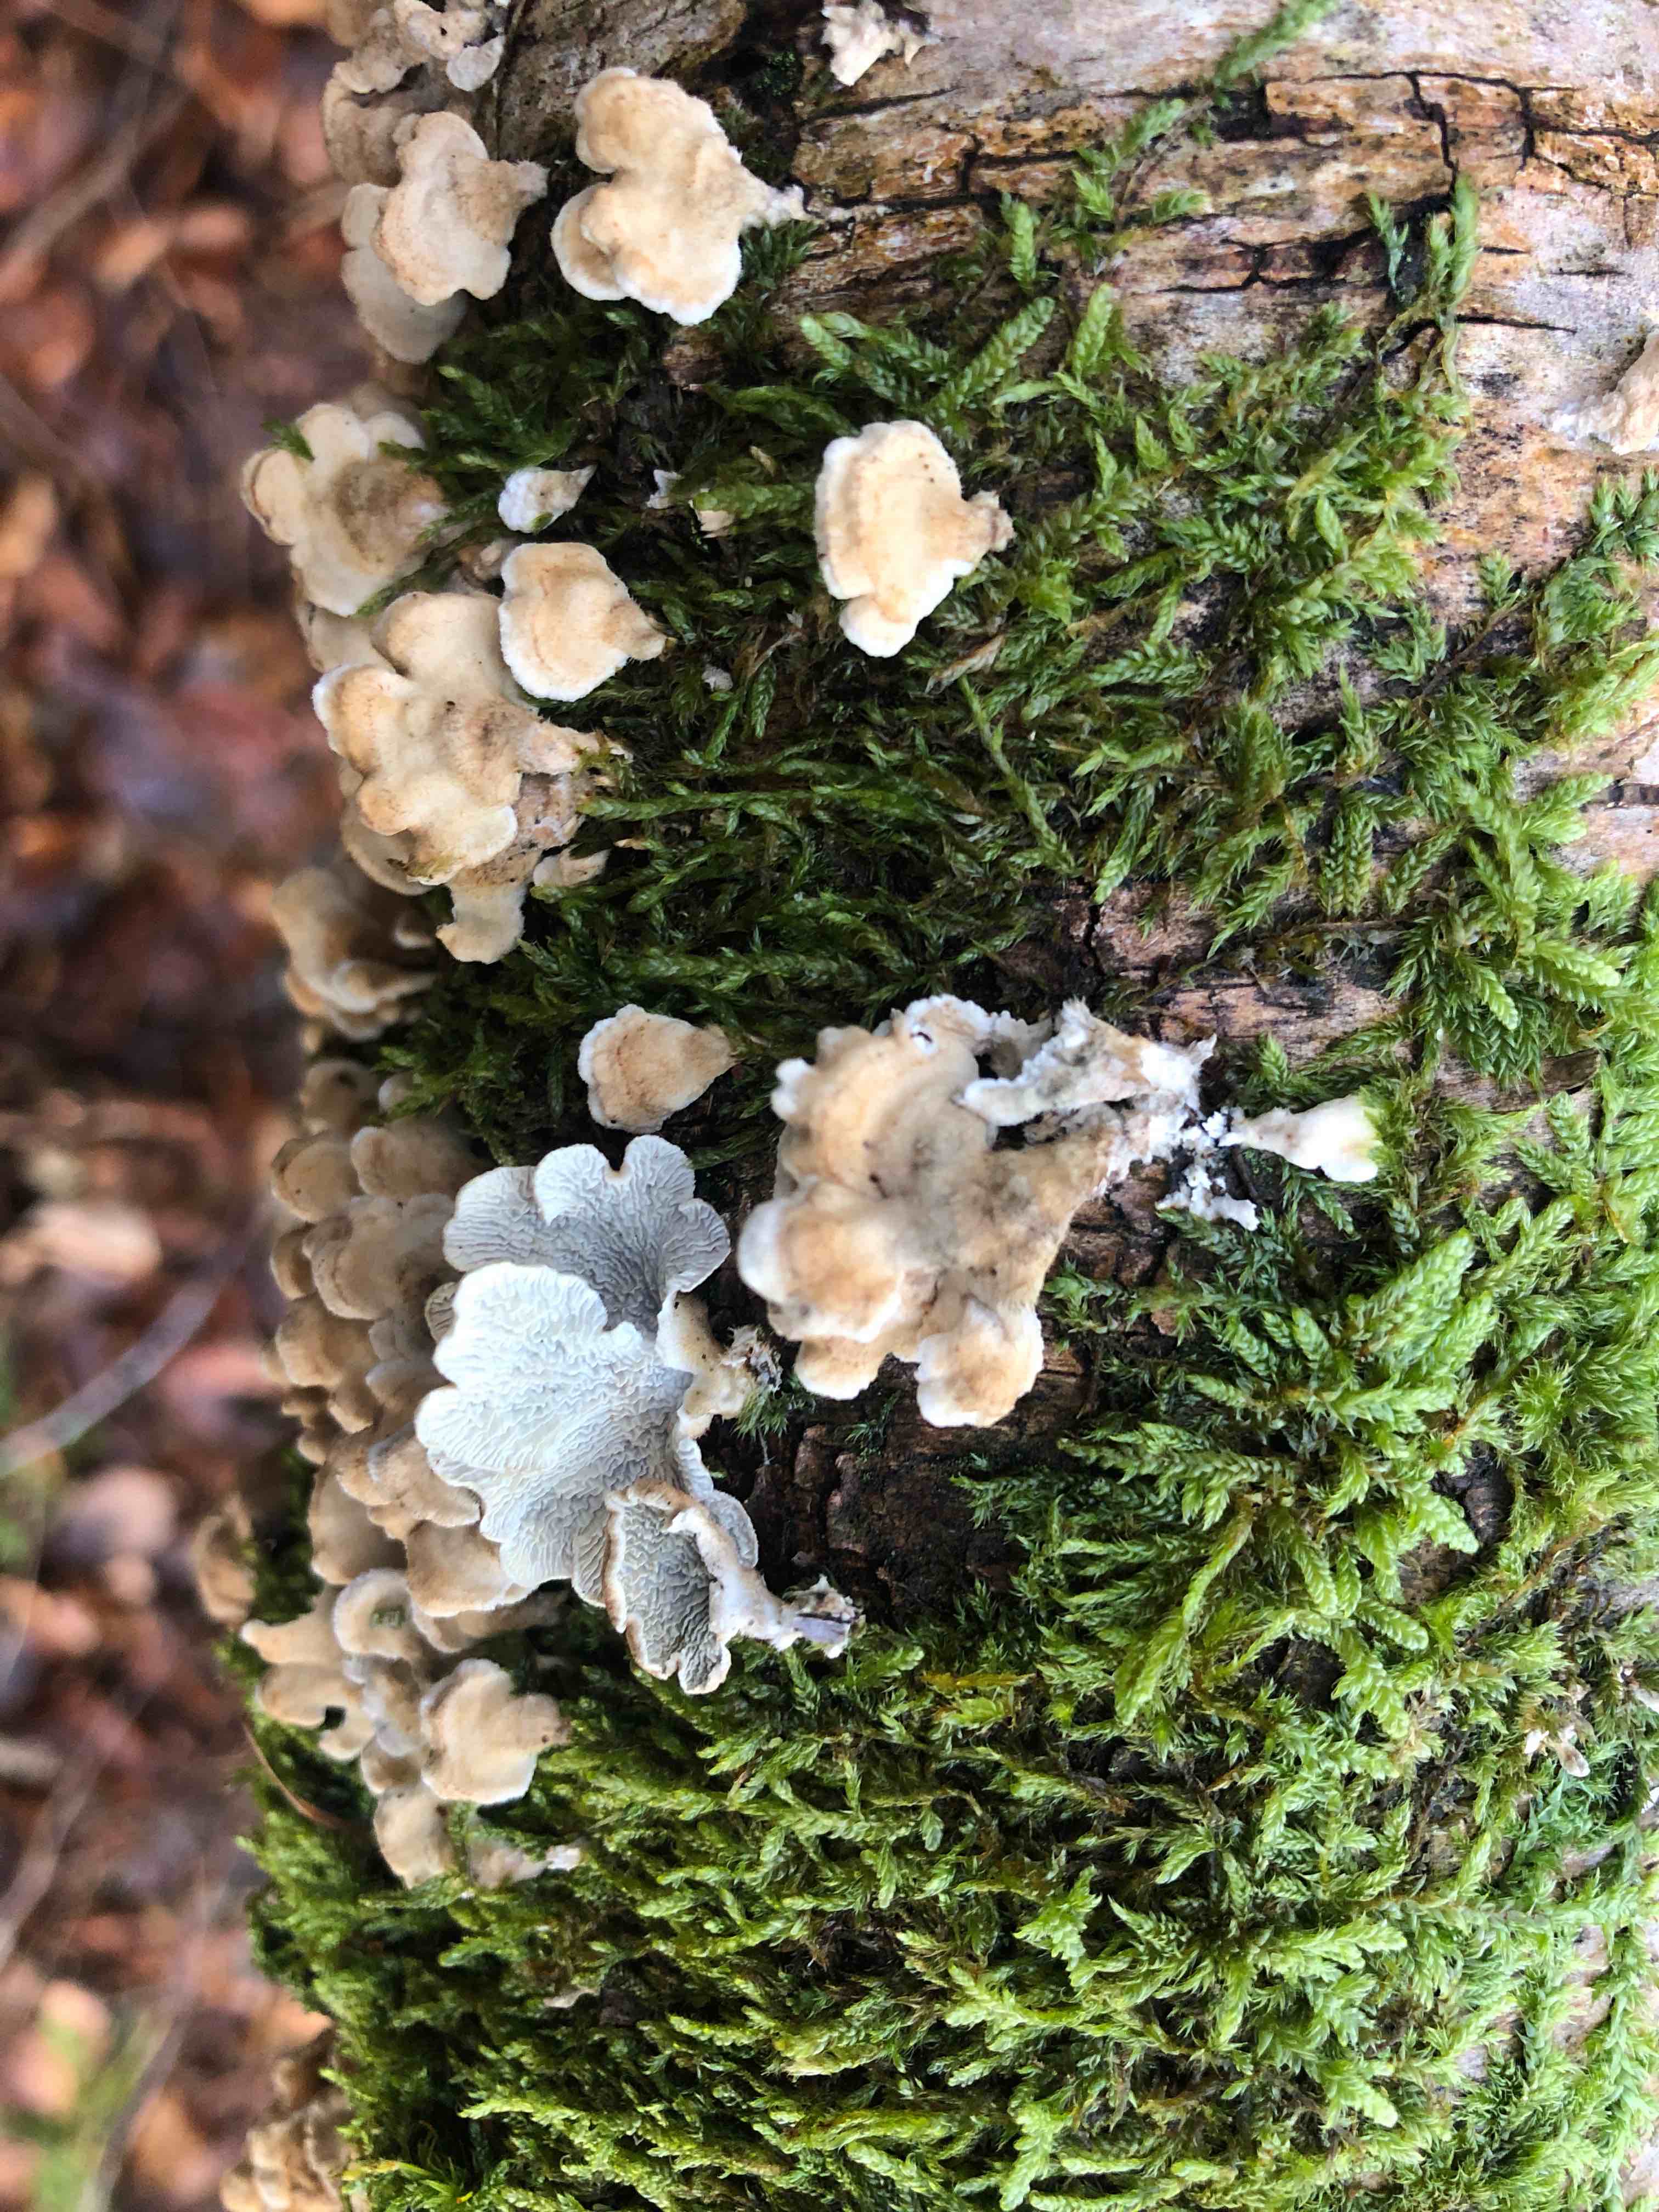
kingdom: Fungi
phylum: Basidiomycota
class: Agaricomycetes
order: Amylocorticiales
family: Amylocorticiaceae
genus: Plicaturopsis
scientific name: Plicaturopsis crispa
